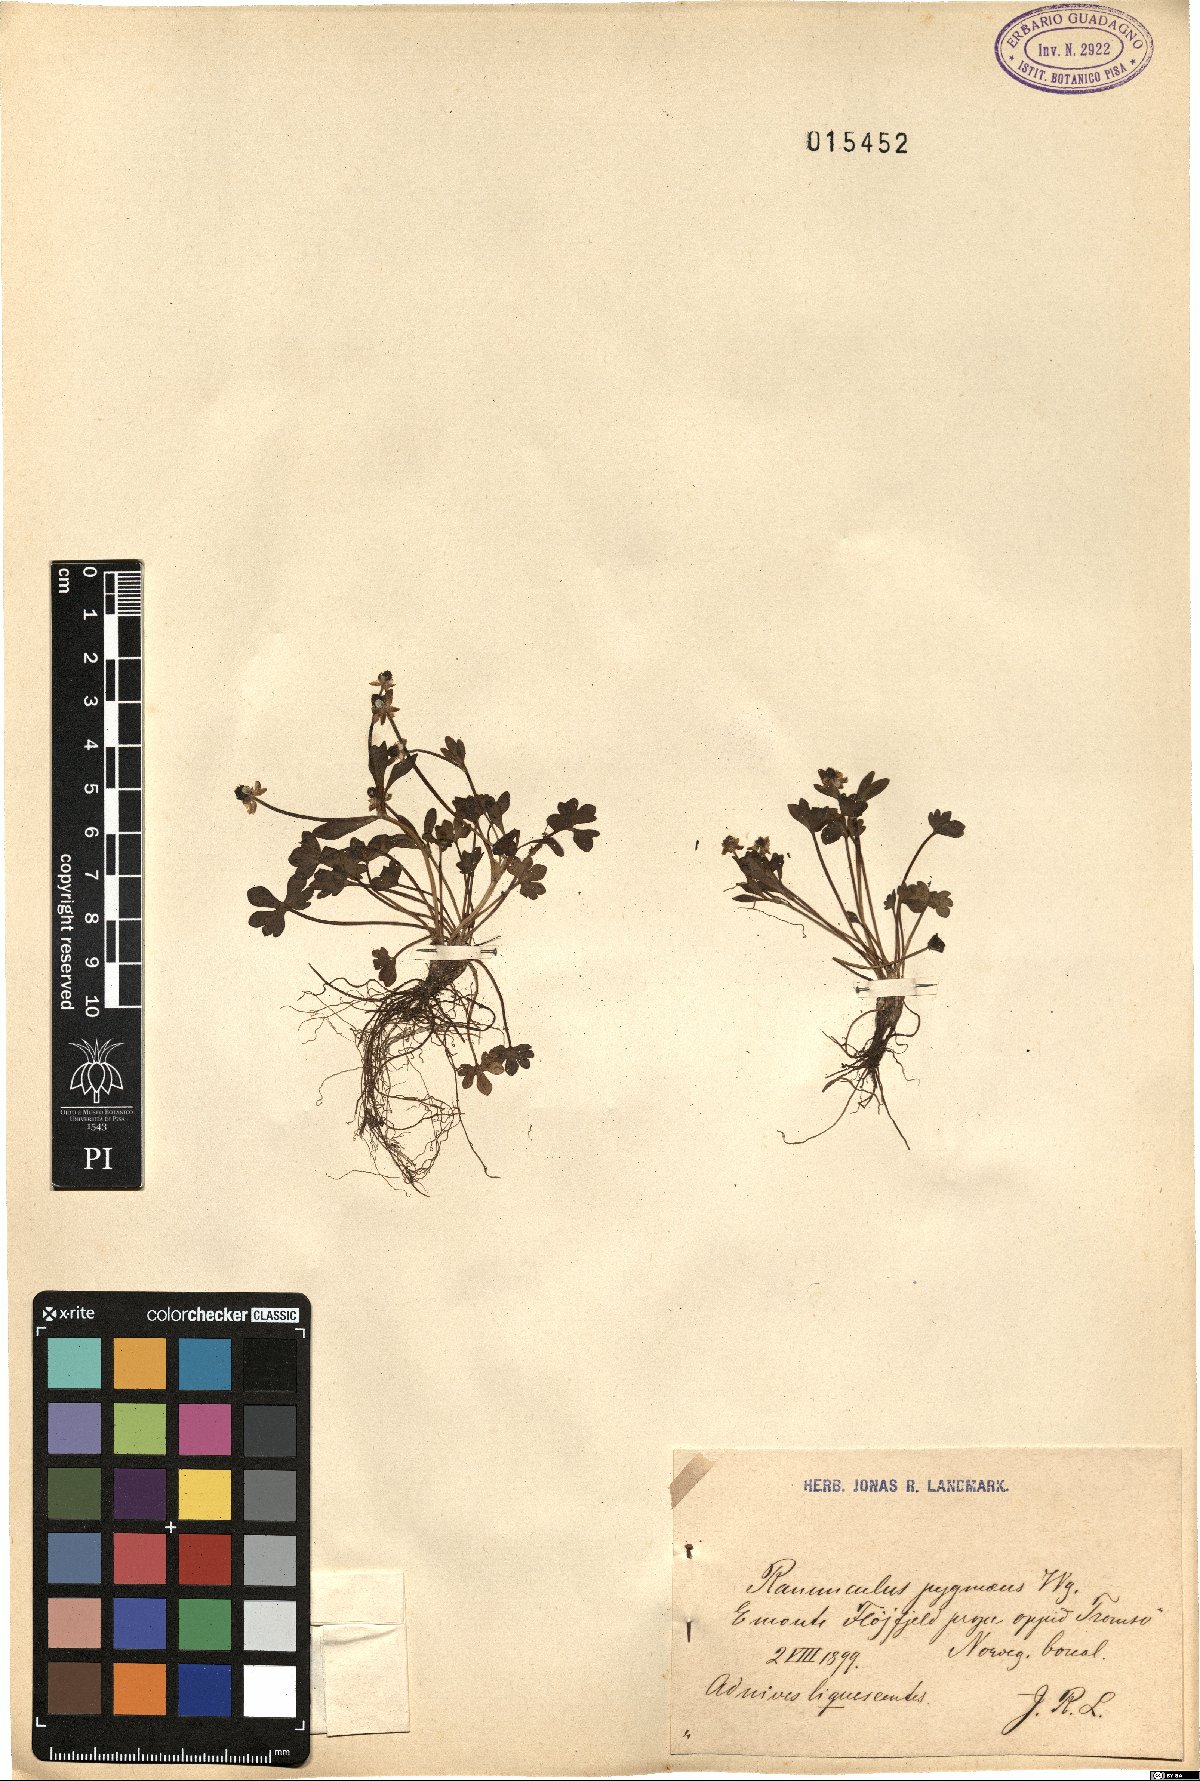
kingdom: Plantae
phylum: Tracheophyta
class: Magnoliopsida
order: Ranunculales
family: Ranunculaceae
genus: Ranunculus
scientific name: Ranunculus pygmaeus
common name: Dwarf buttercup
